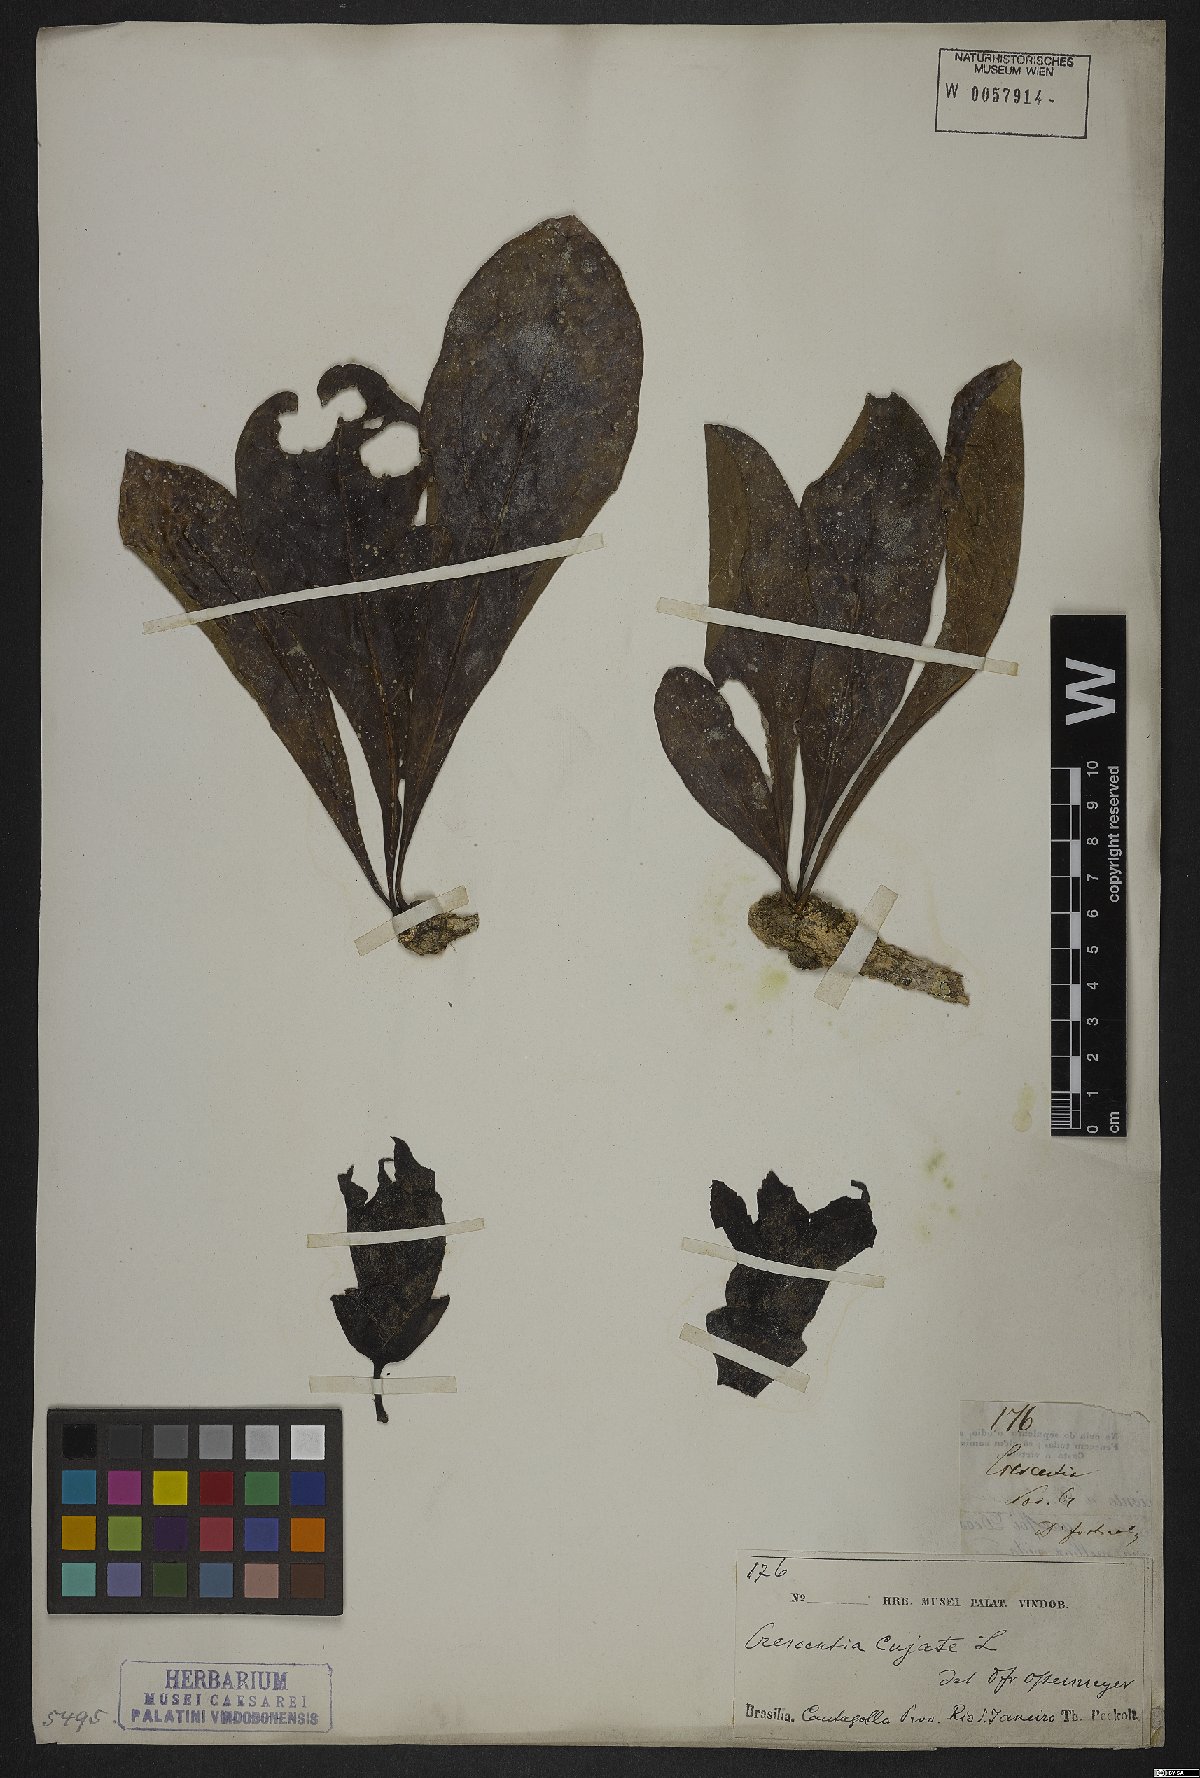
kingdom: Plantae
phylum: Tracheophyta
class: Magnoliopsida
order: Lamiales
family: Bignoniaceae
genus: Crescentia
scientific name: Crescentia cujete
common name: Calabash
